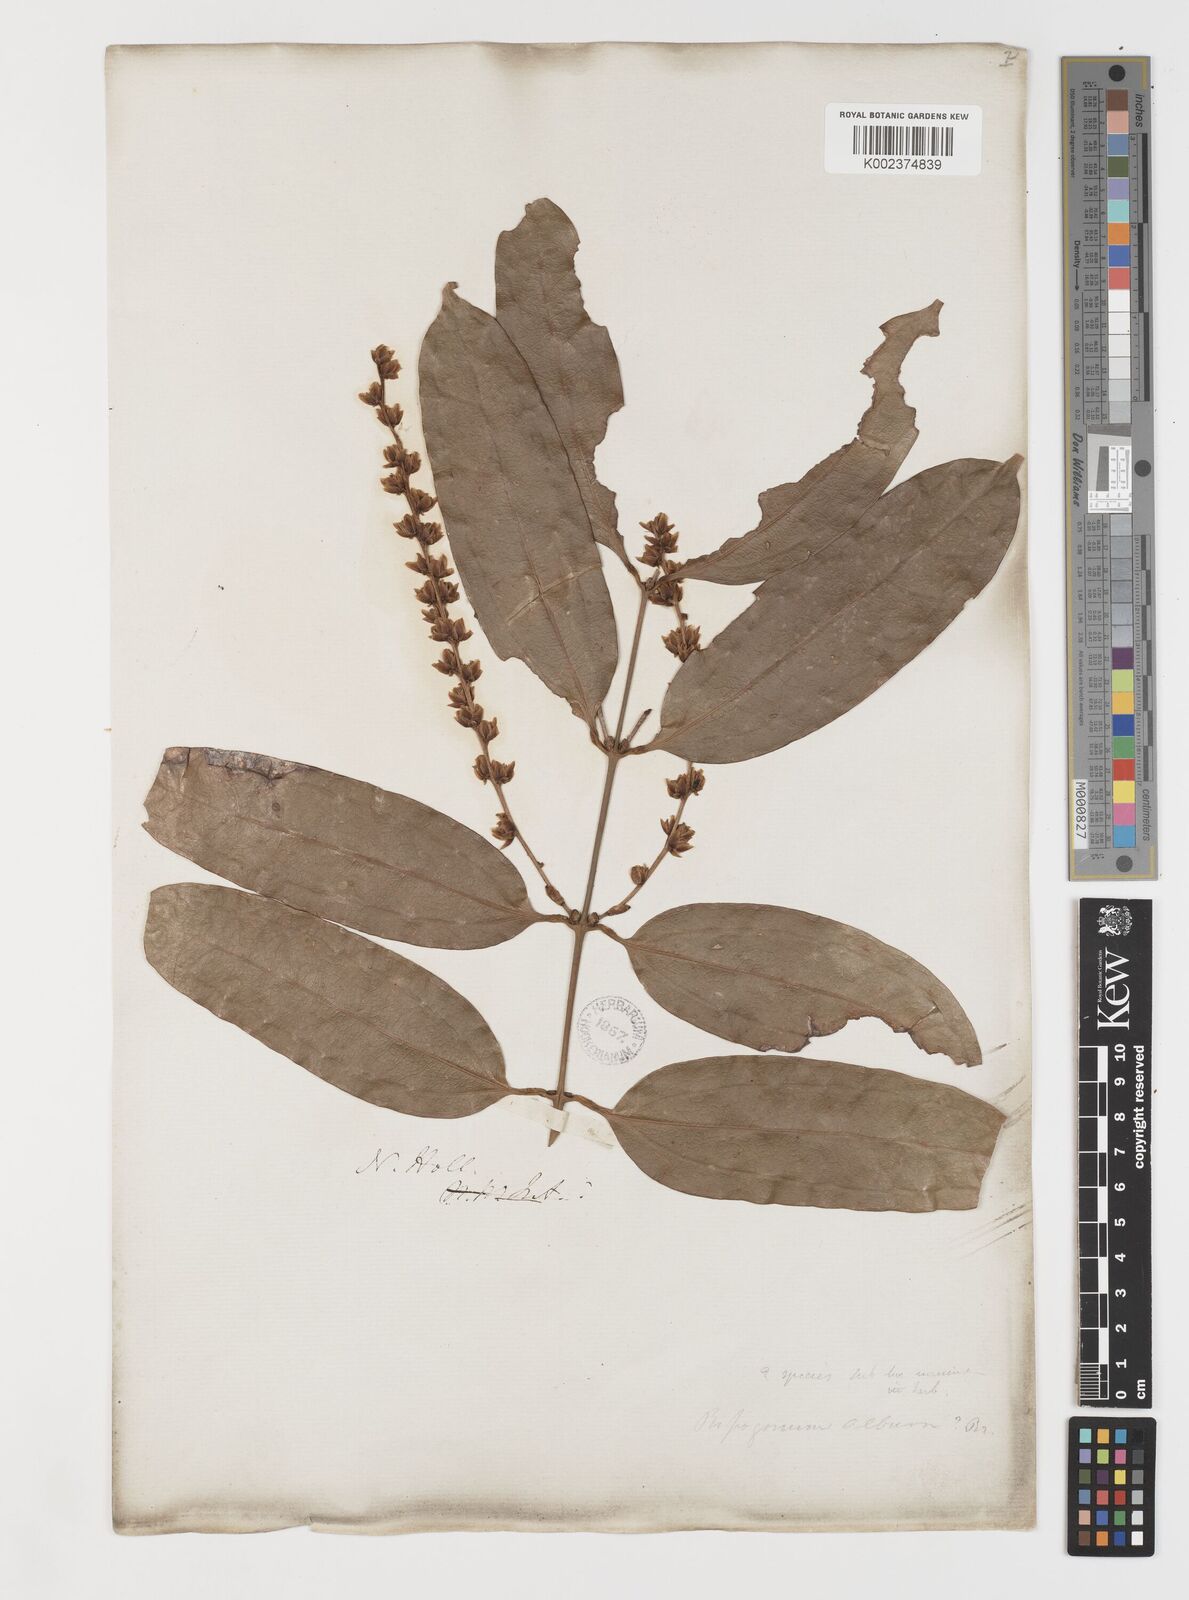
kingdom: Plantae
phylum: Tracheophyta
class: Liliopsida
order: Liliales
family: Ripogonaceae
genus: Ripogonum
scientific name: Ripogonum album
